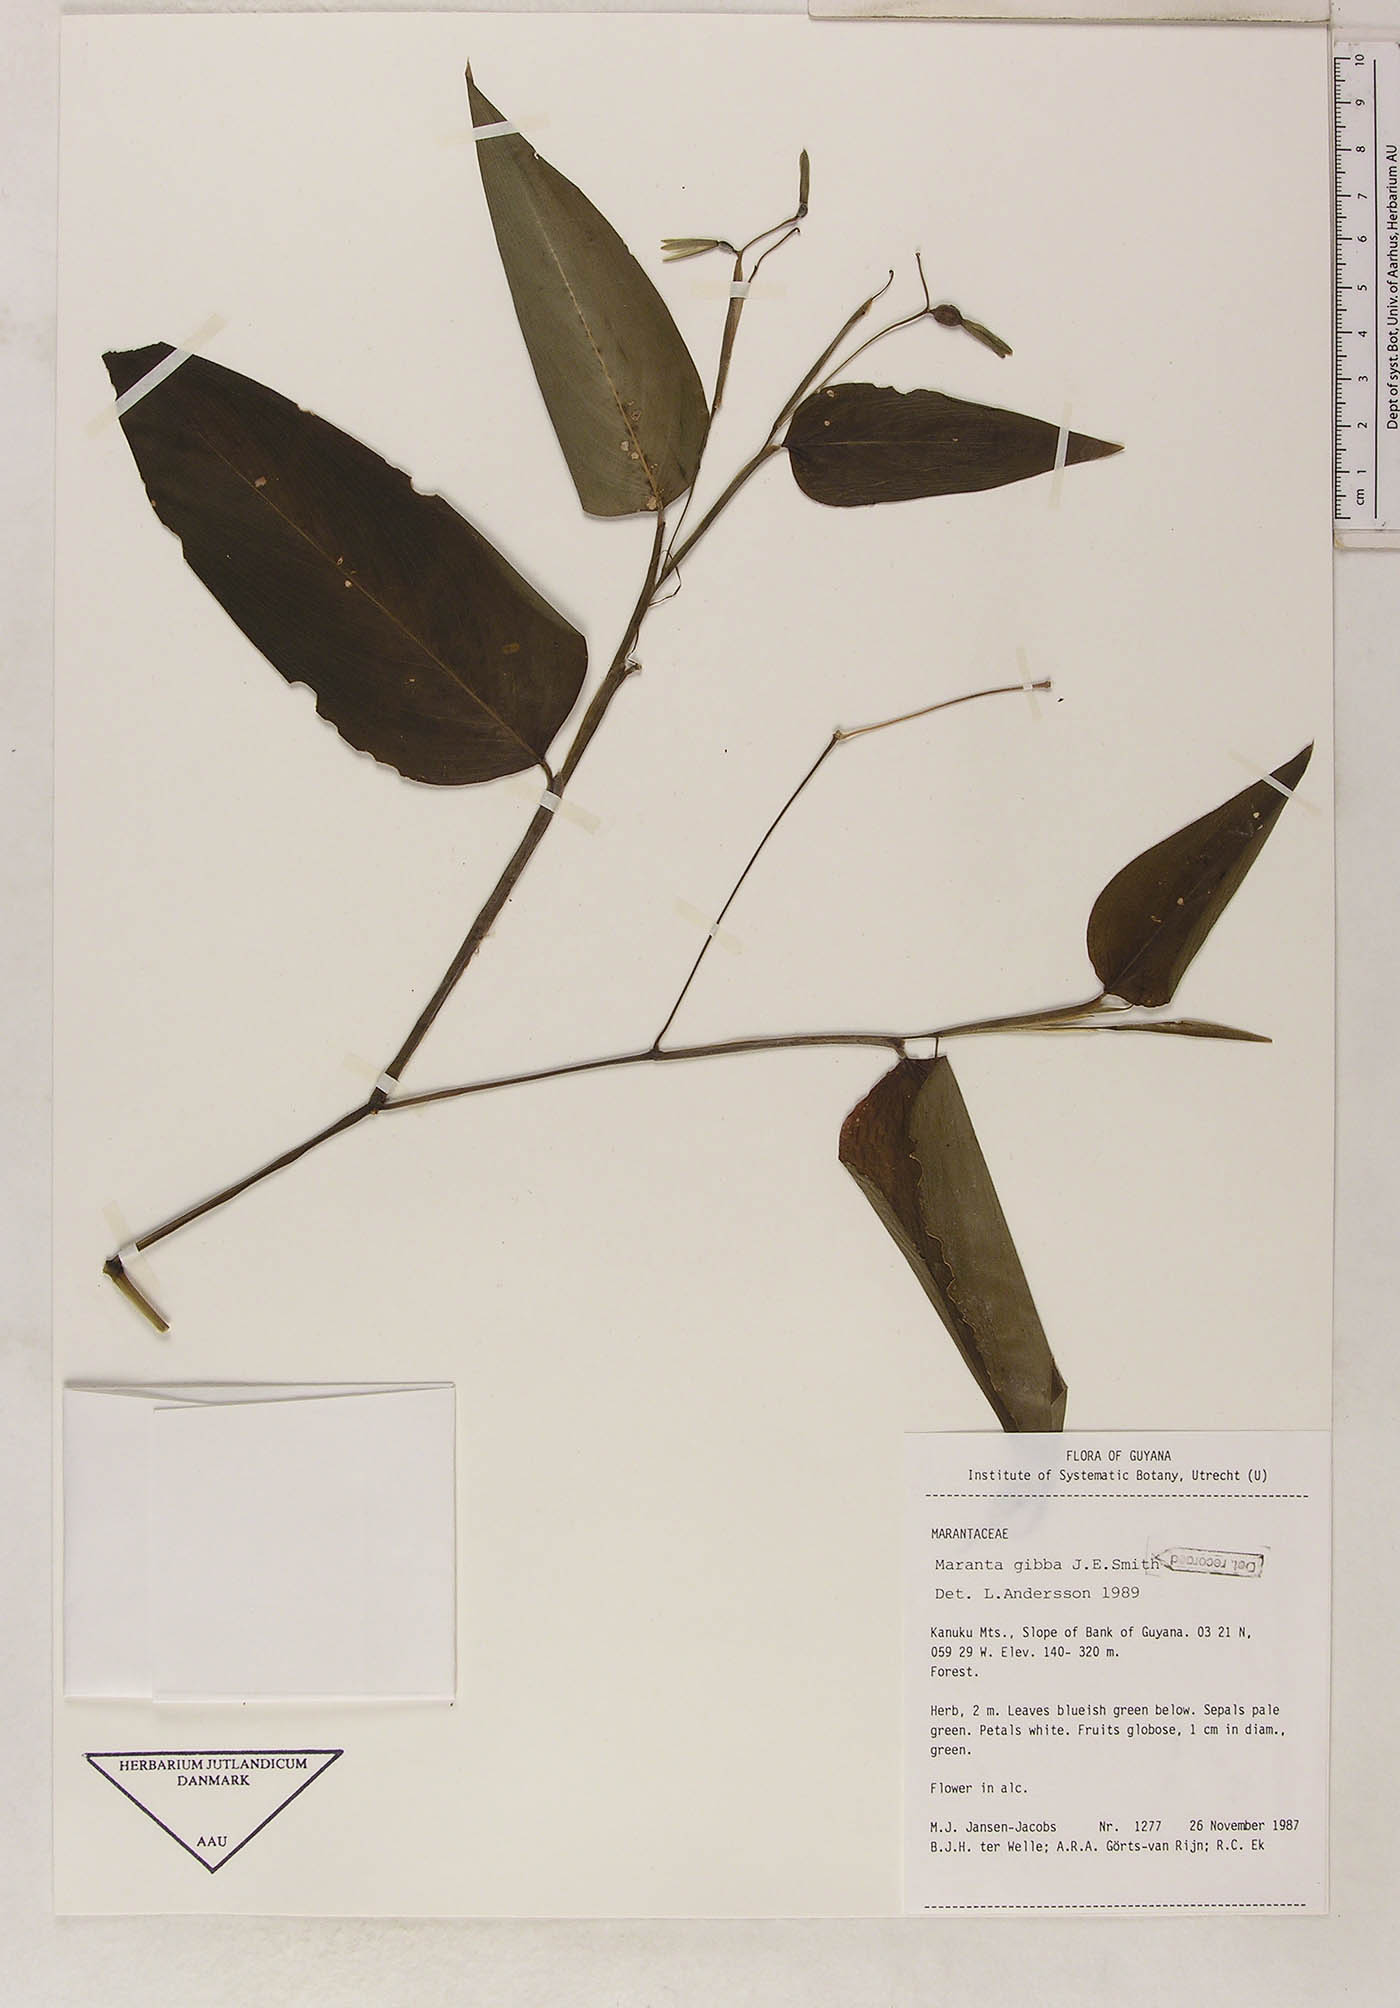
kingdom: Plantae
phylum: Tracheophyta
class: Liliopsida
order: Zingiberales
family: Marantaceae
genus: Maranta
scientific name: Maranta gibba
